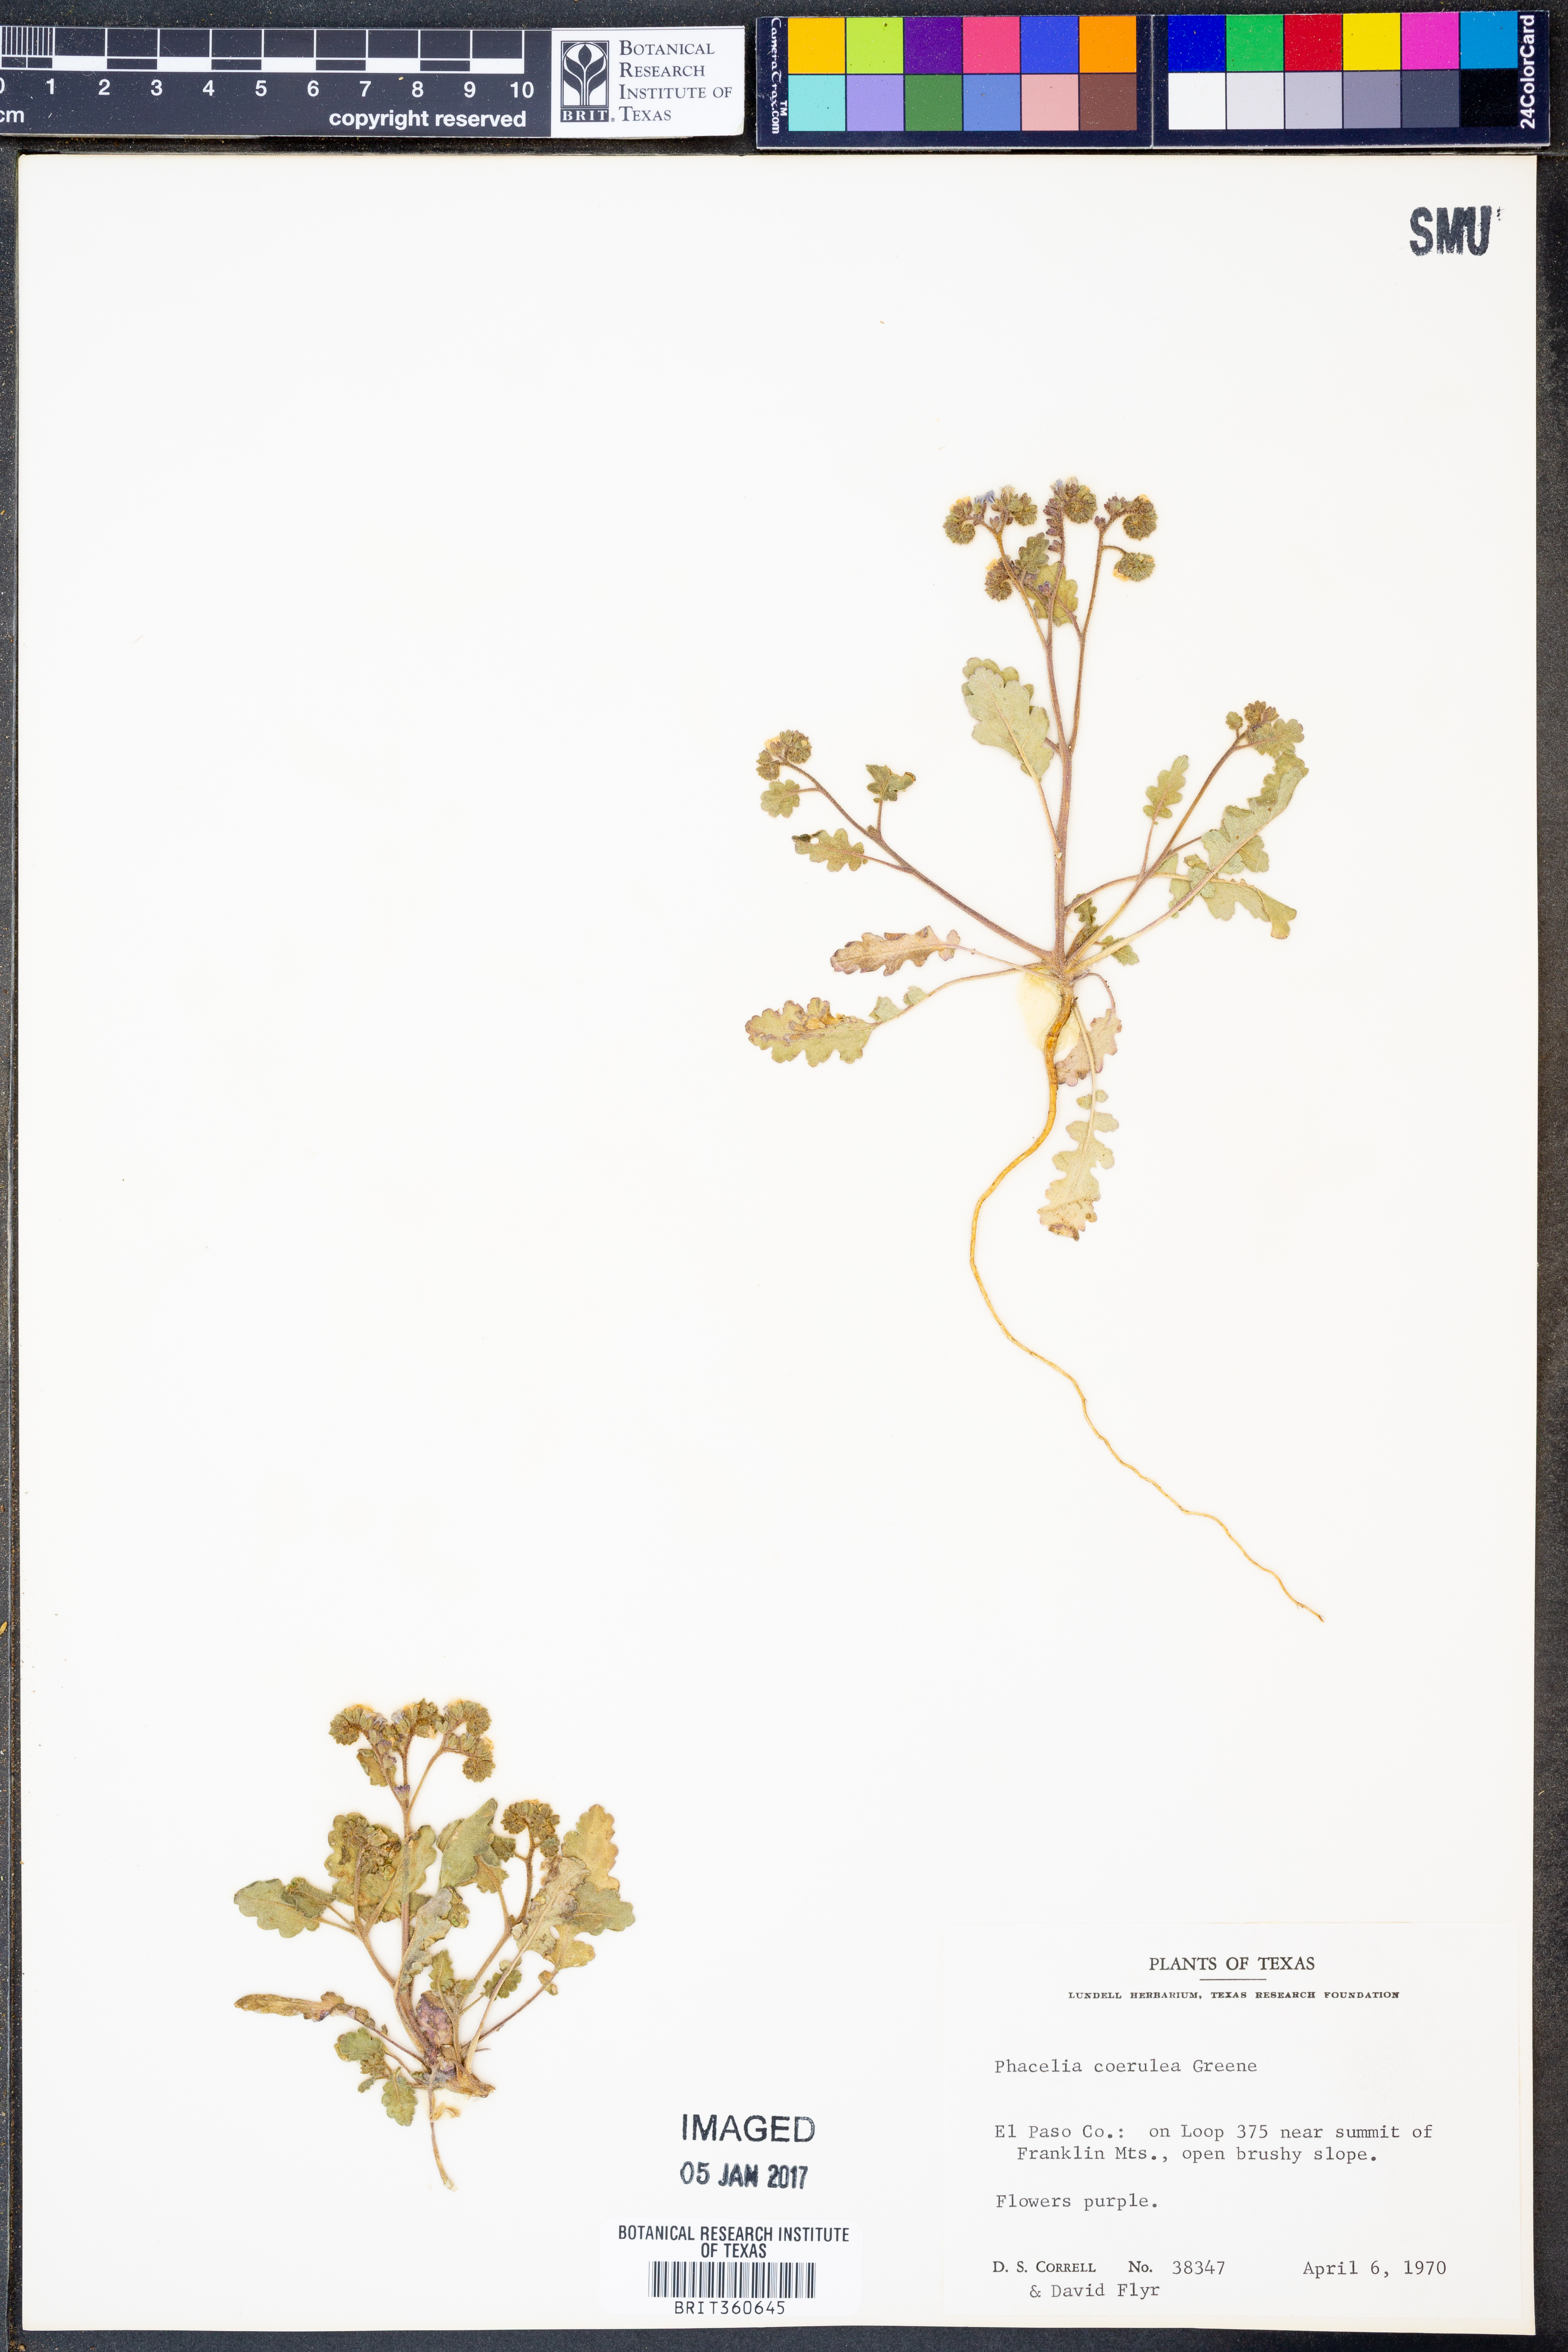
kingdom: Plantae
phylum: Tracheophyta
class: Magnoliopsida
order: Boraginales
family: Hydrophyllaceae
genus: Phacelia
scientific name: Phacelia coerulea
